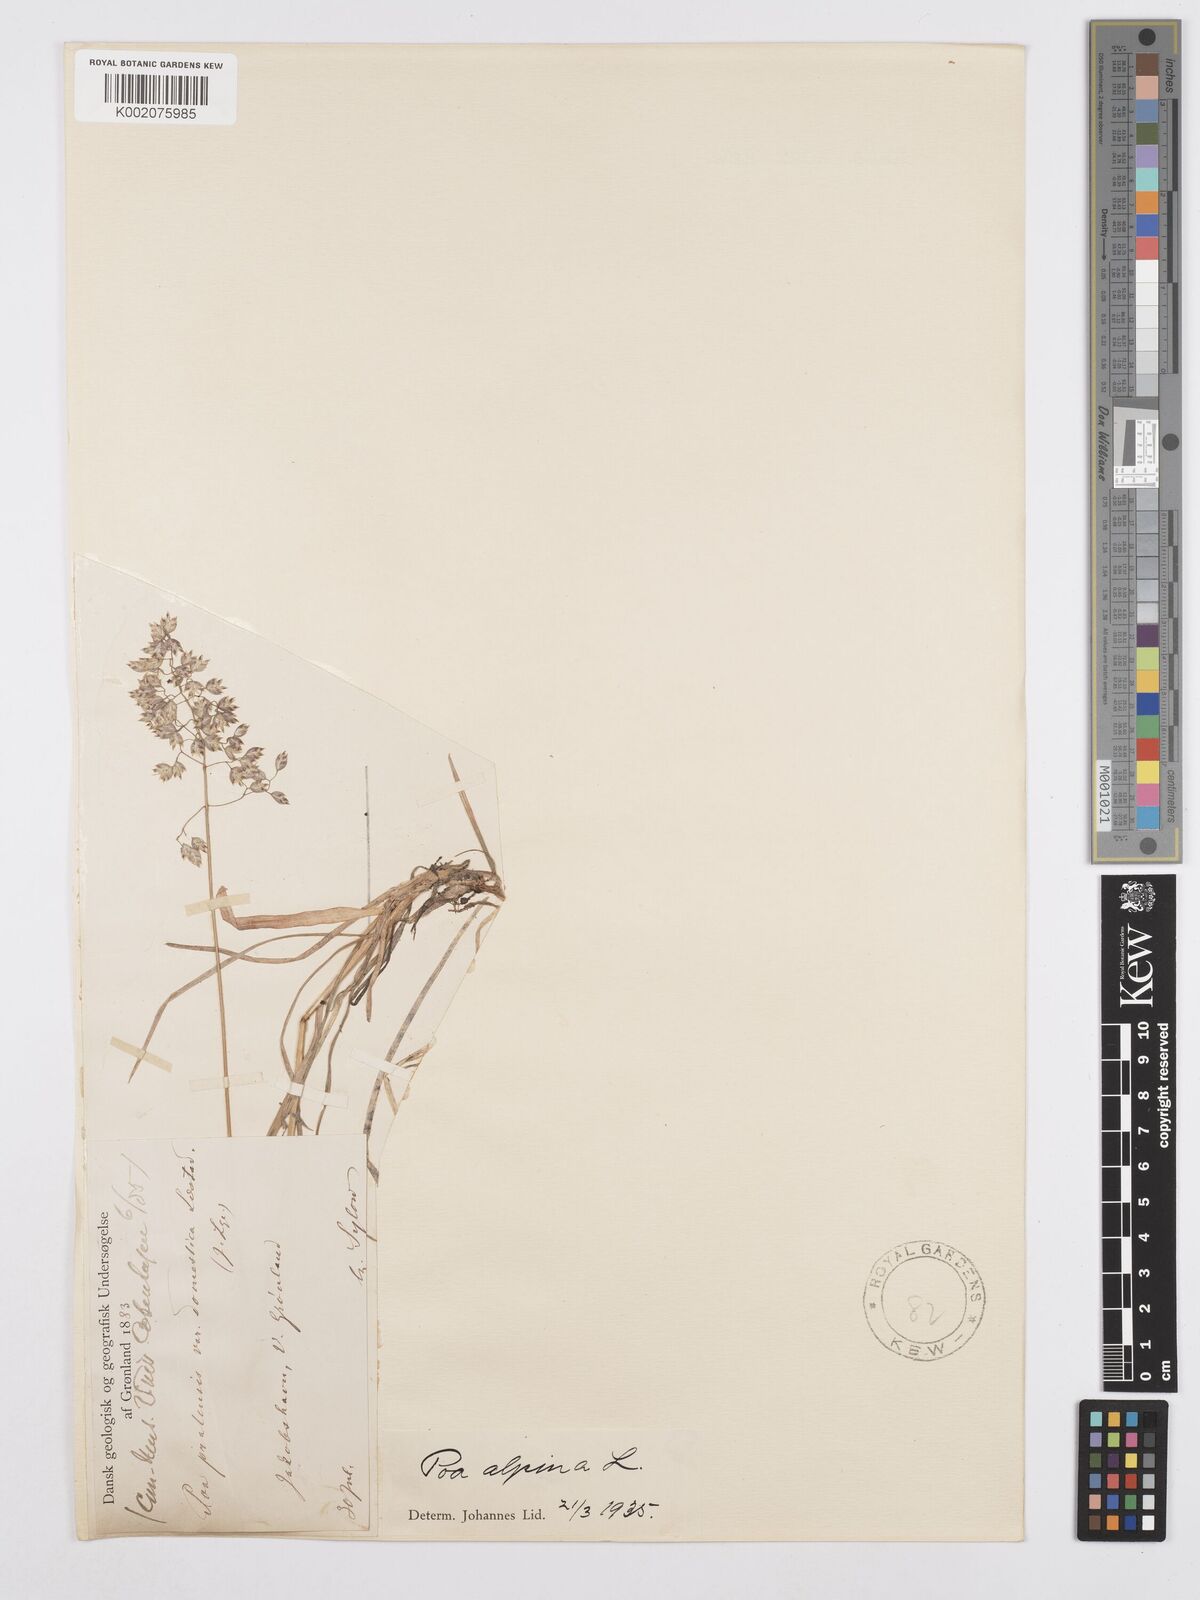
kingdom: Plantae
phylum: Tracheophyta
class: Liliopsida
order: Poales
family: Poaceae
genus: Poa
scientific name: Poa alpina
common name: Alpine bluegrass
